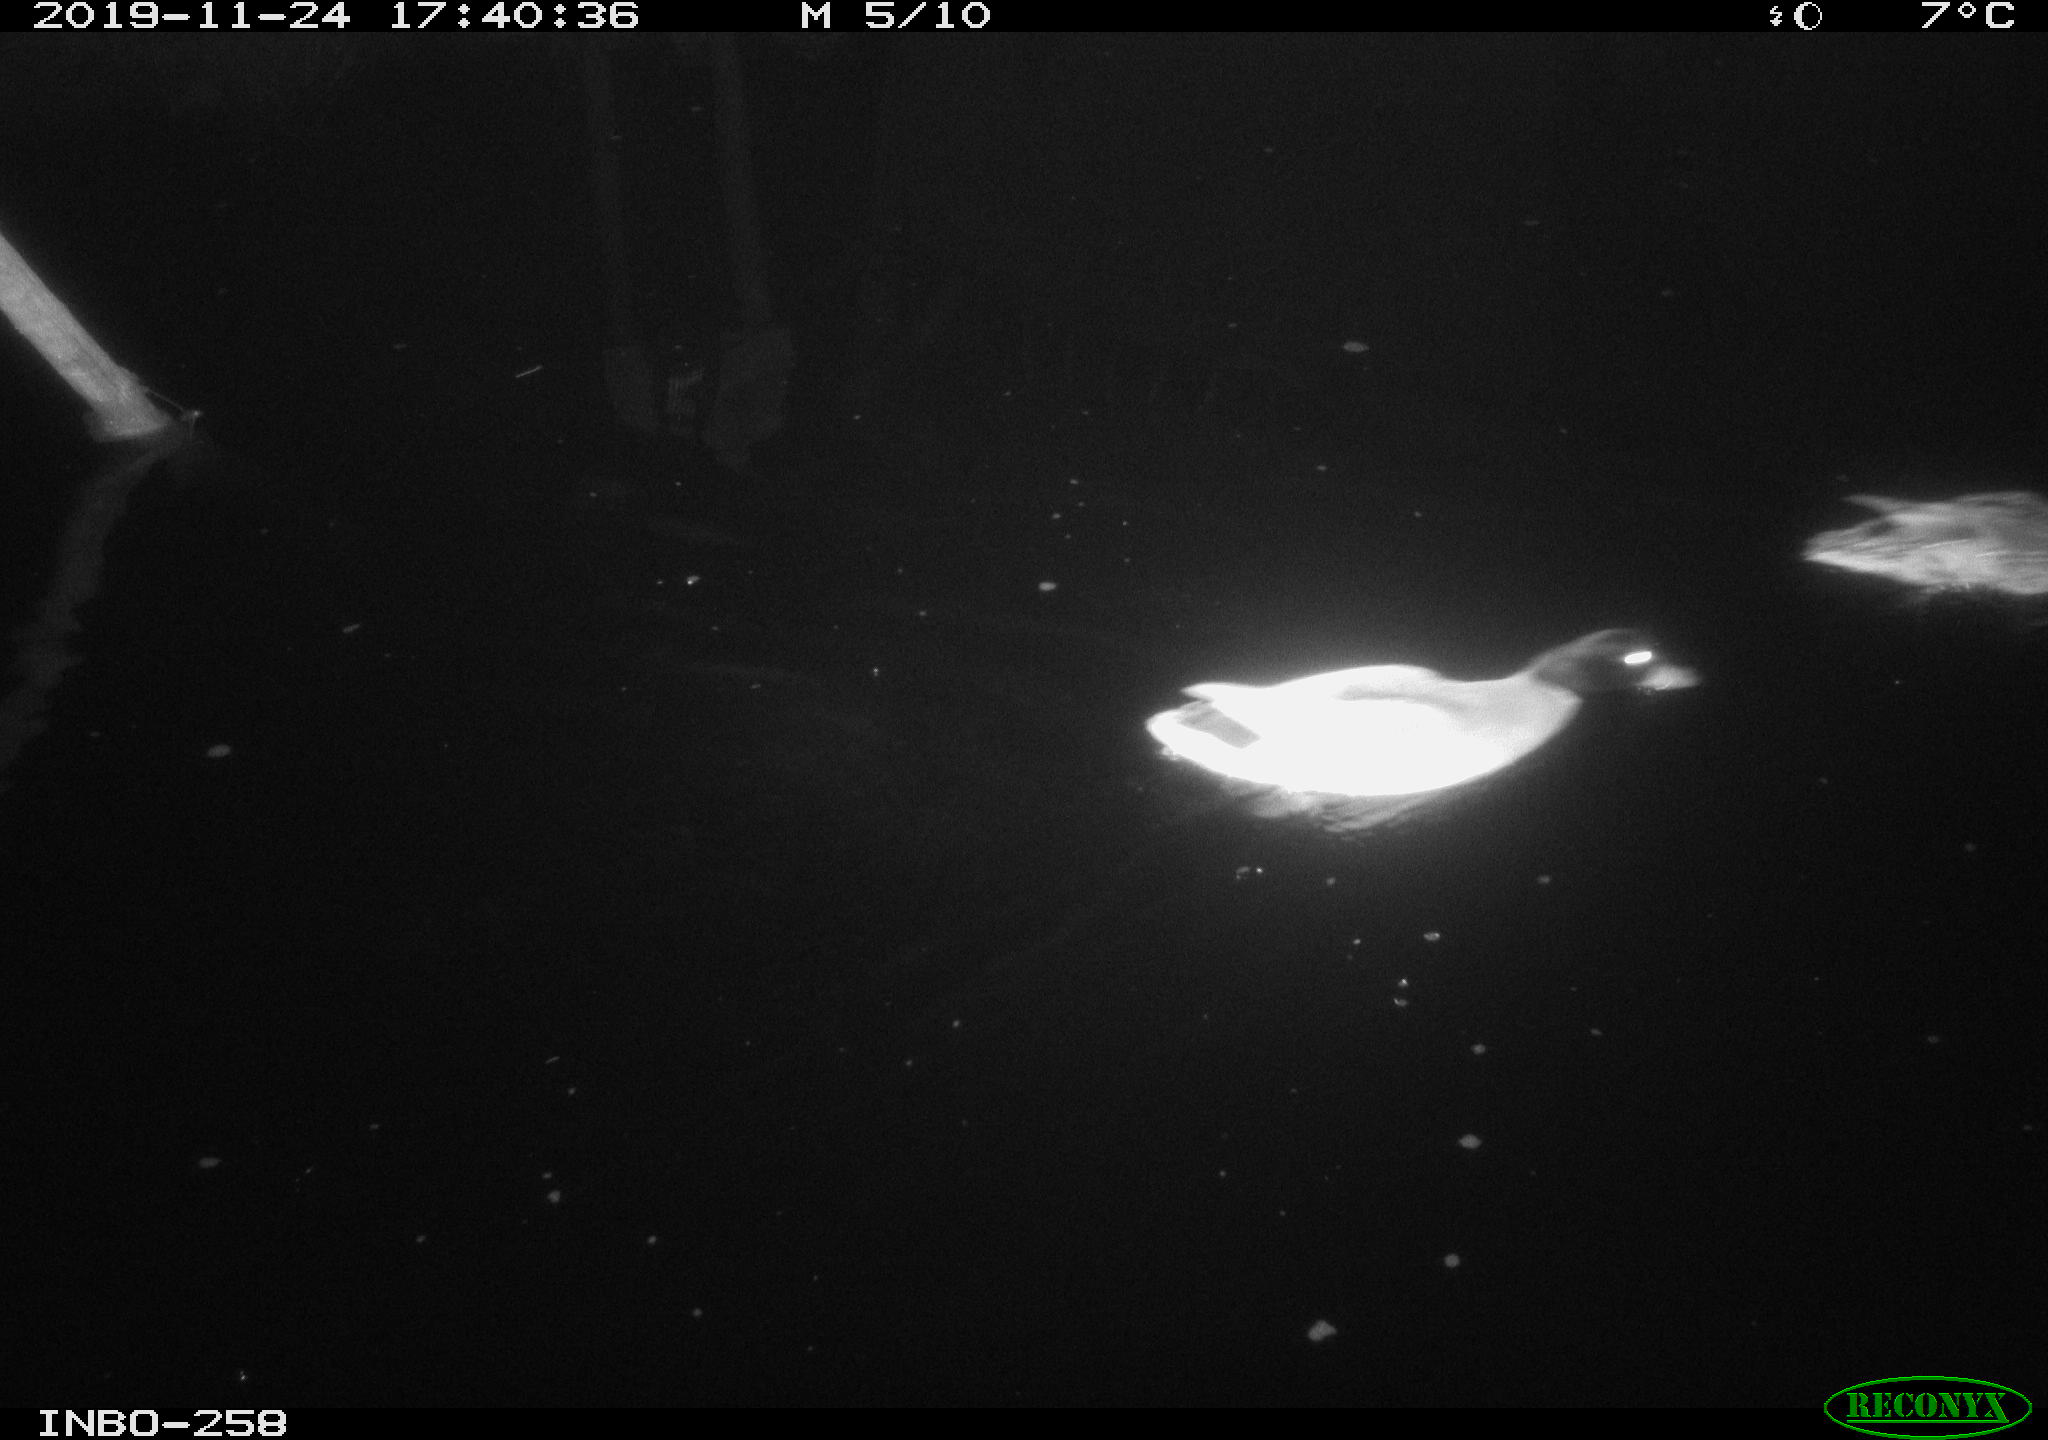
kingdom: Animalia
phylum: Chordata
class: Aves
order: Anseriformes
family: Anatidae
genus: Anas
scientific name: Anas platyrhynchos
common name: Mallard
